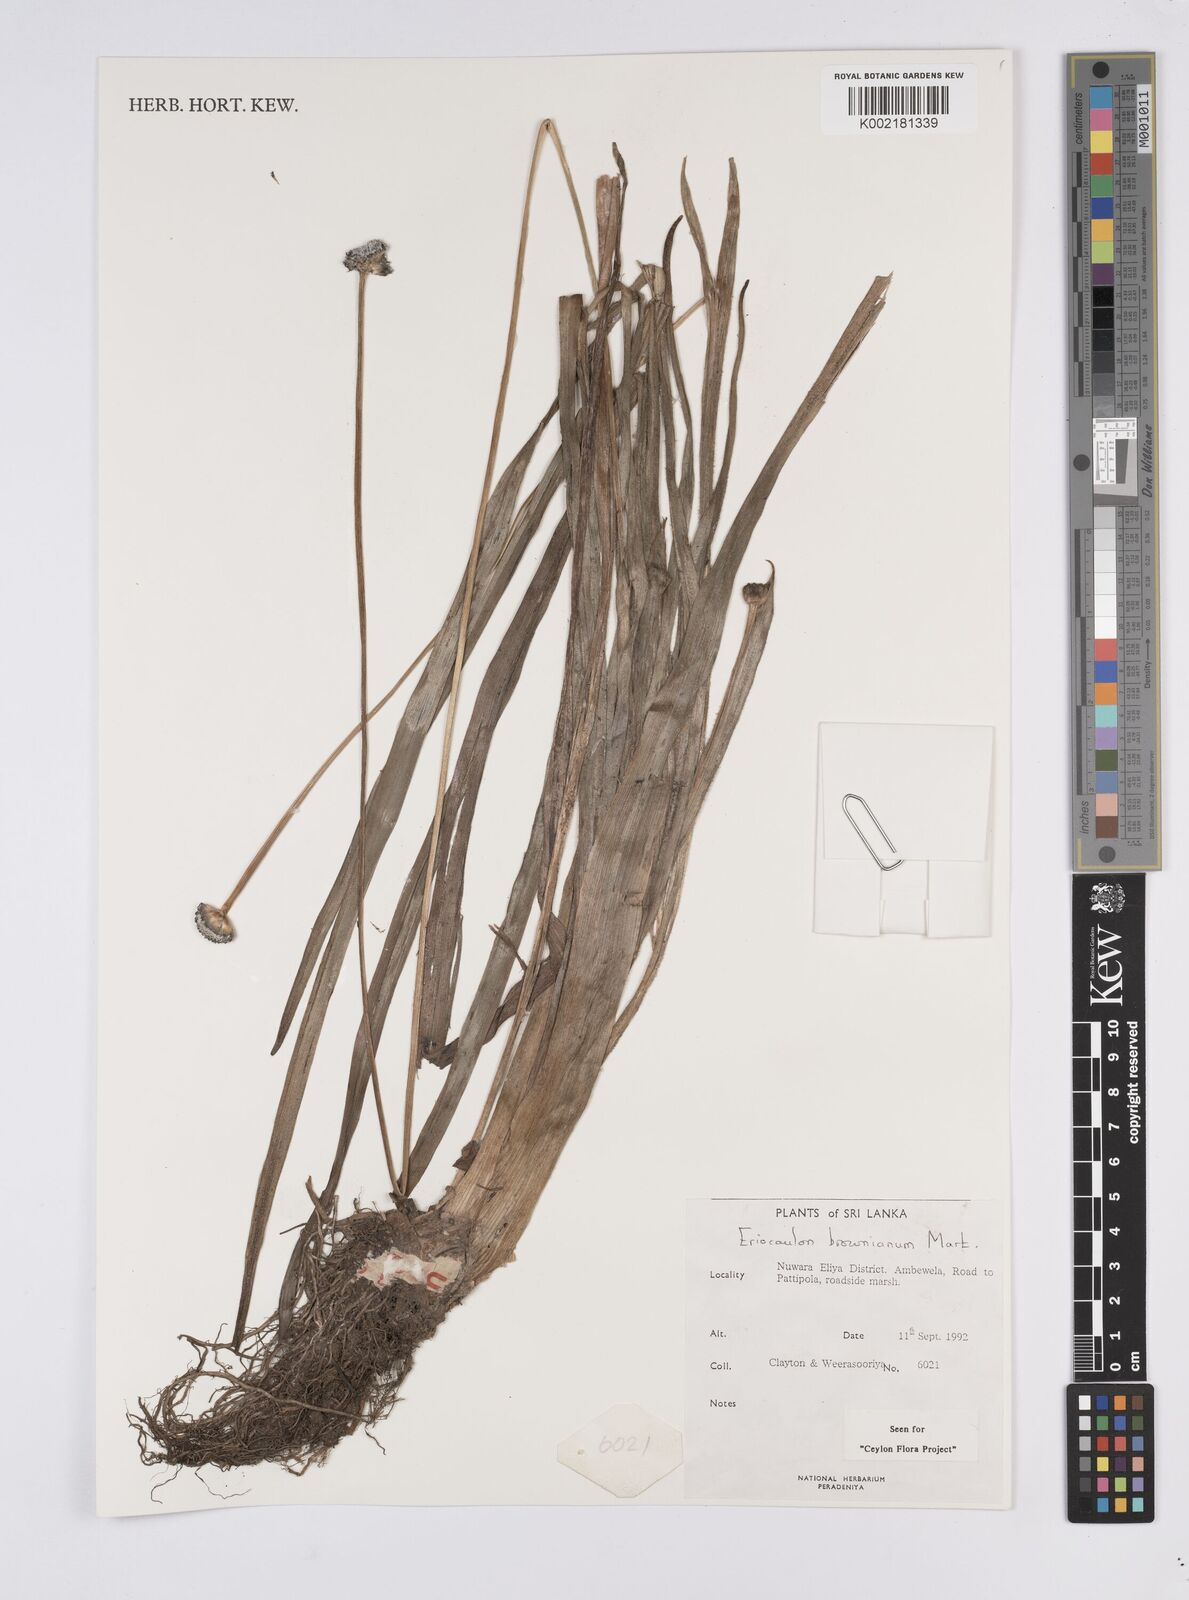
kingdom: Plantae
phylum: Tracheophyta
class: Liliopsida
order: Poales
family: Eriocaulaceae
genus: Eriocaulon
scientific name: Eriocaulon brownianum
